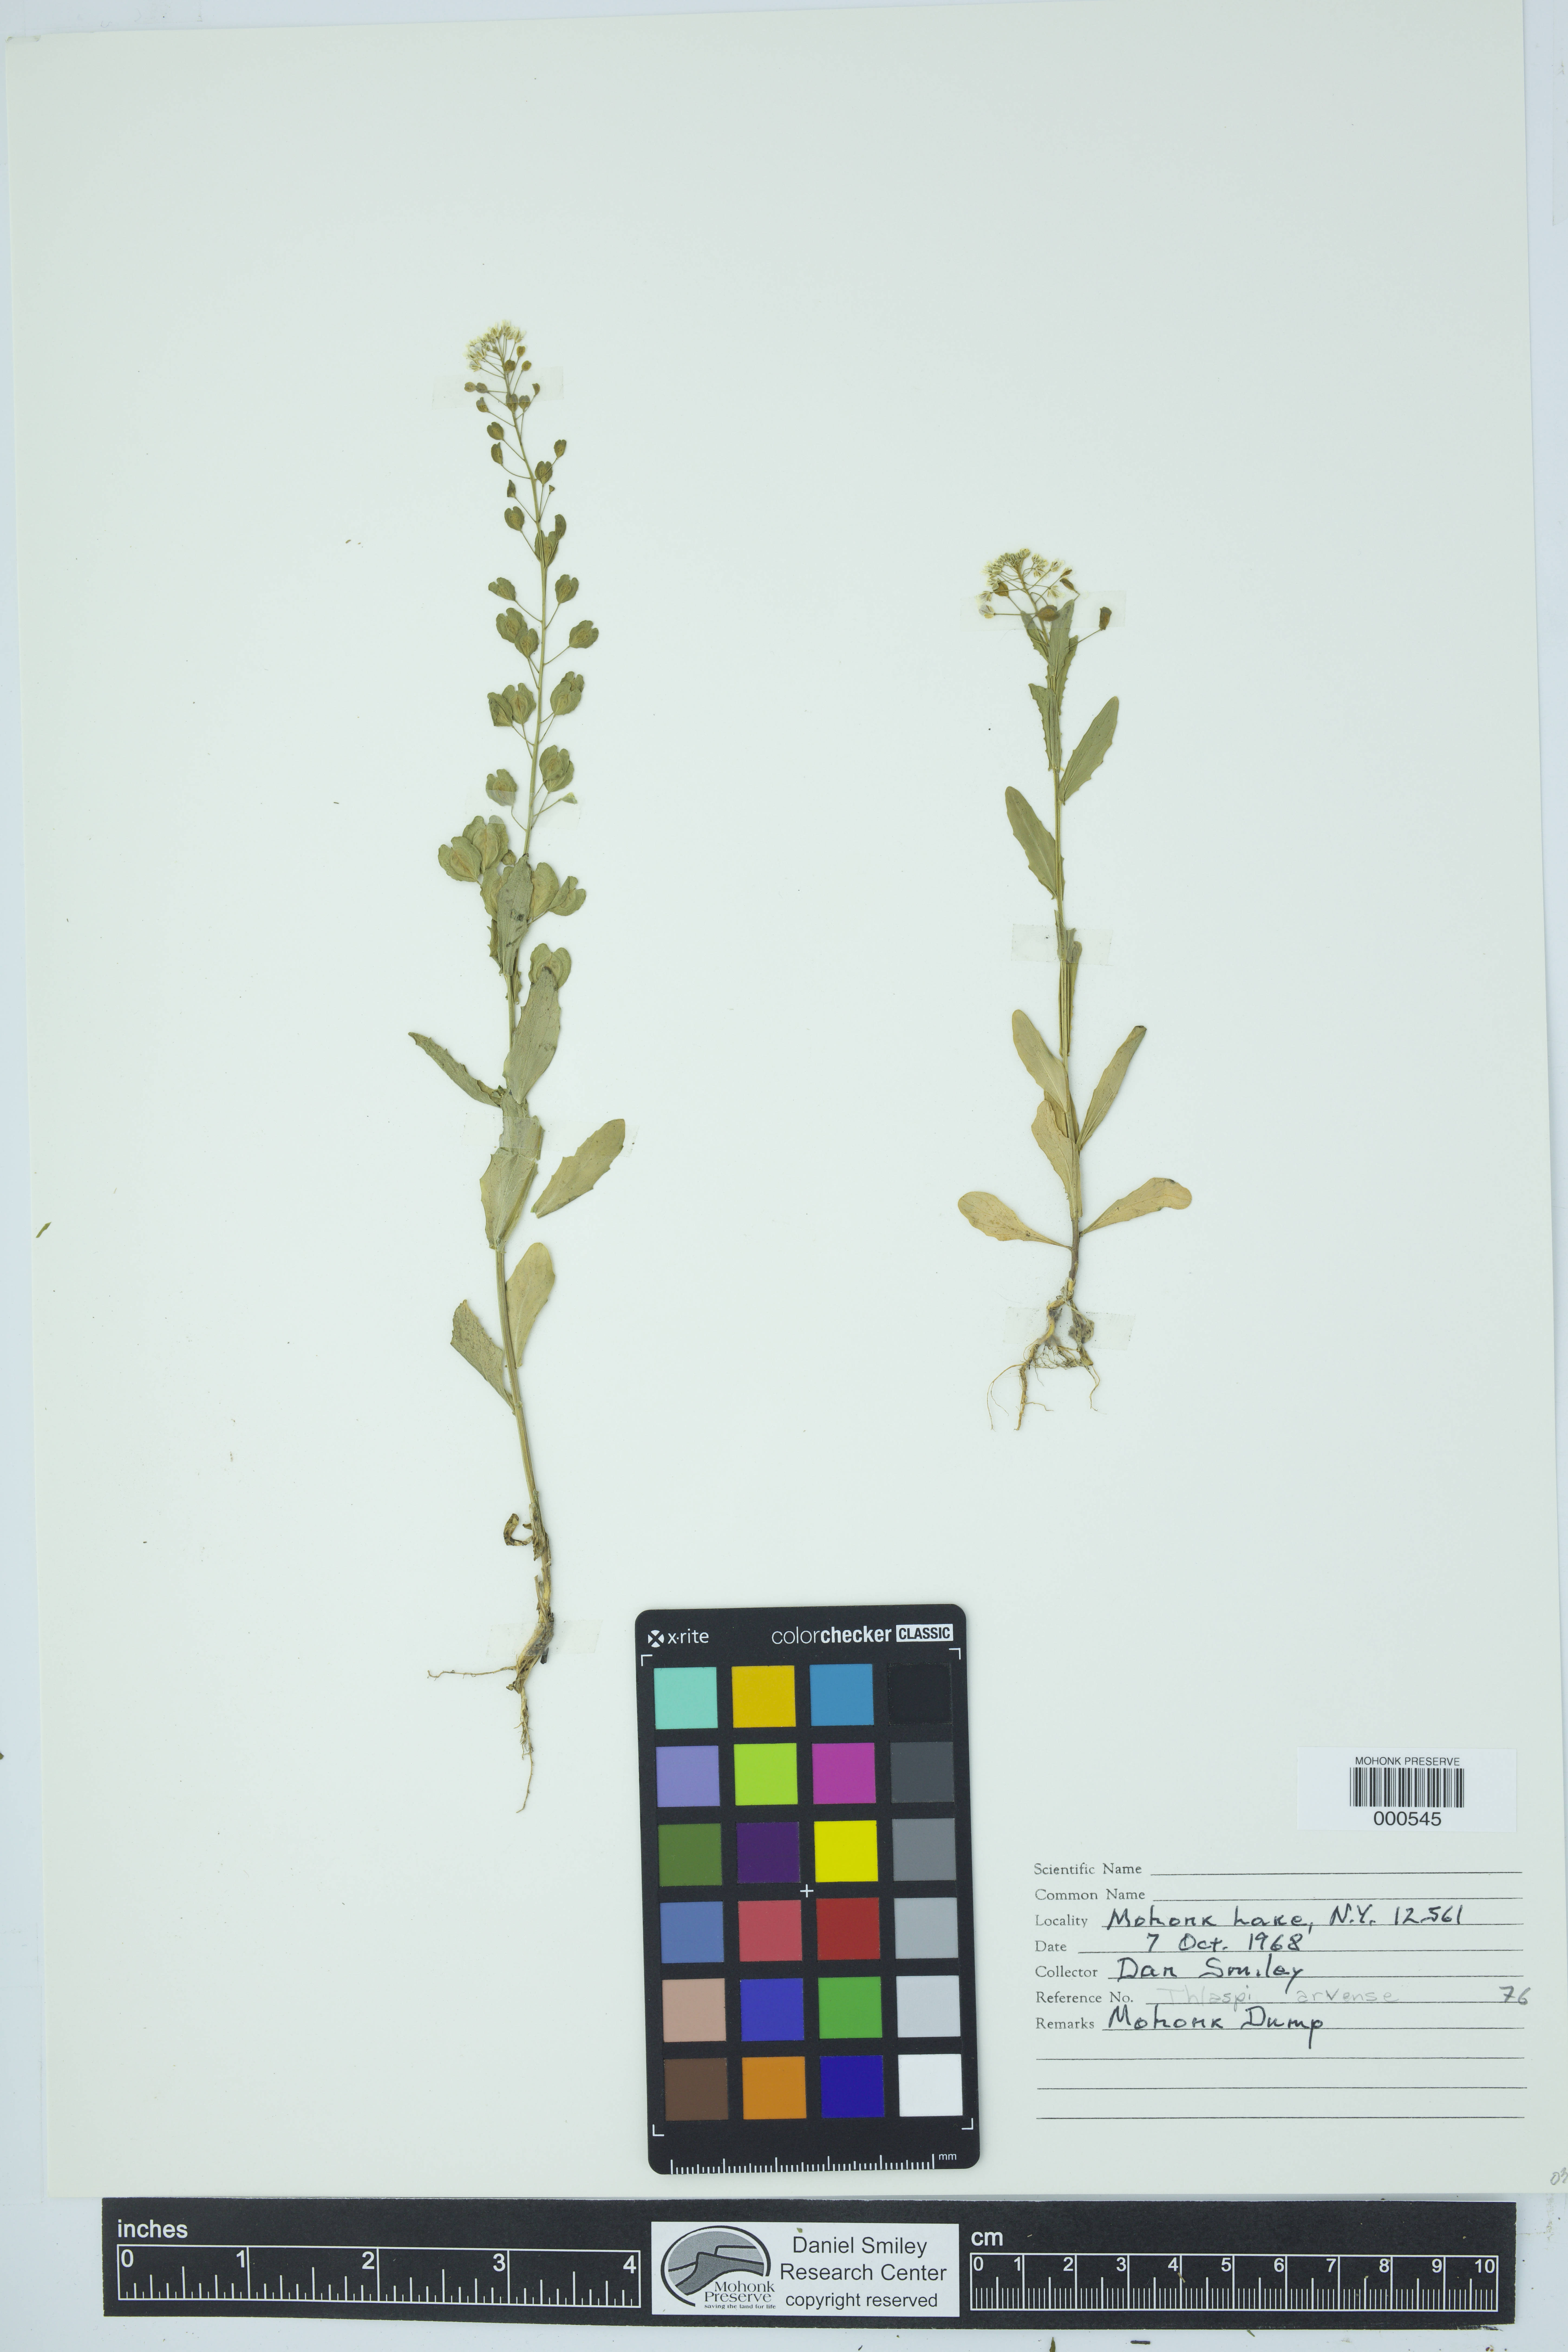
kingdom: Plantae
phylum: Tracheophyta
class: Magnoliopsida
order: Brassicales
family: Brassicaceae
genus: Thlaspi
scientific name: Thlaspi arvense
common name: Field pennycress
